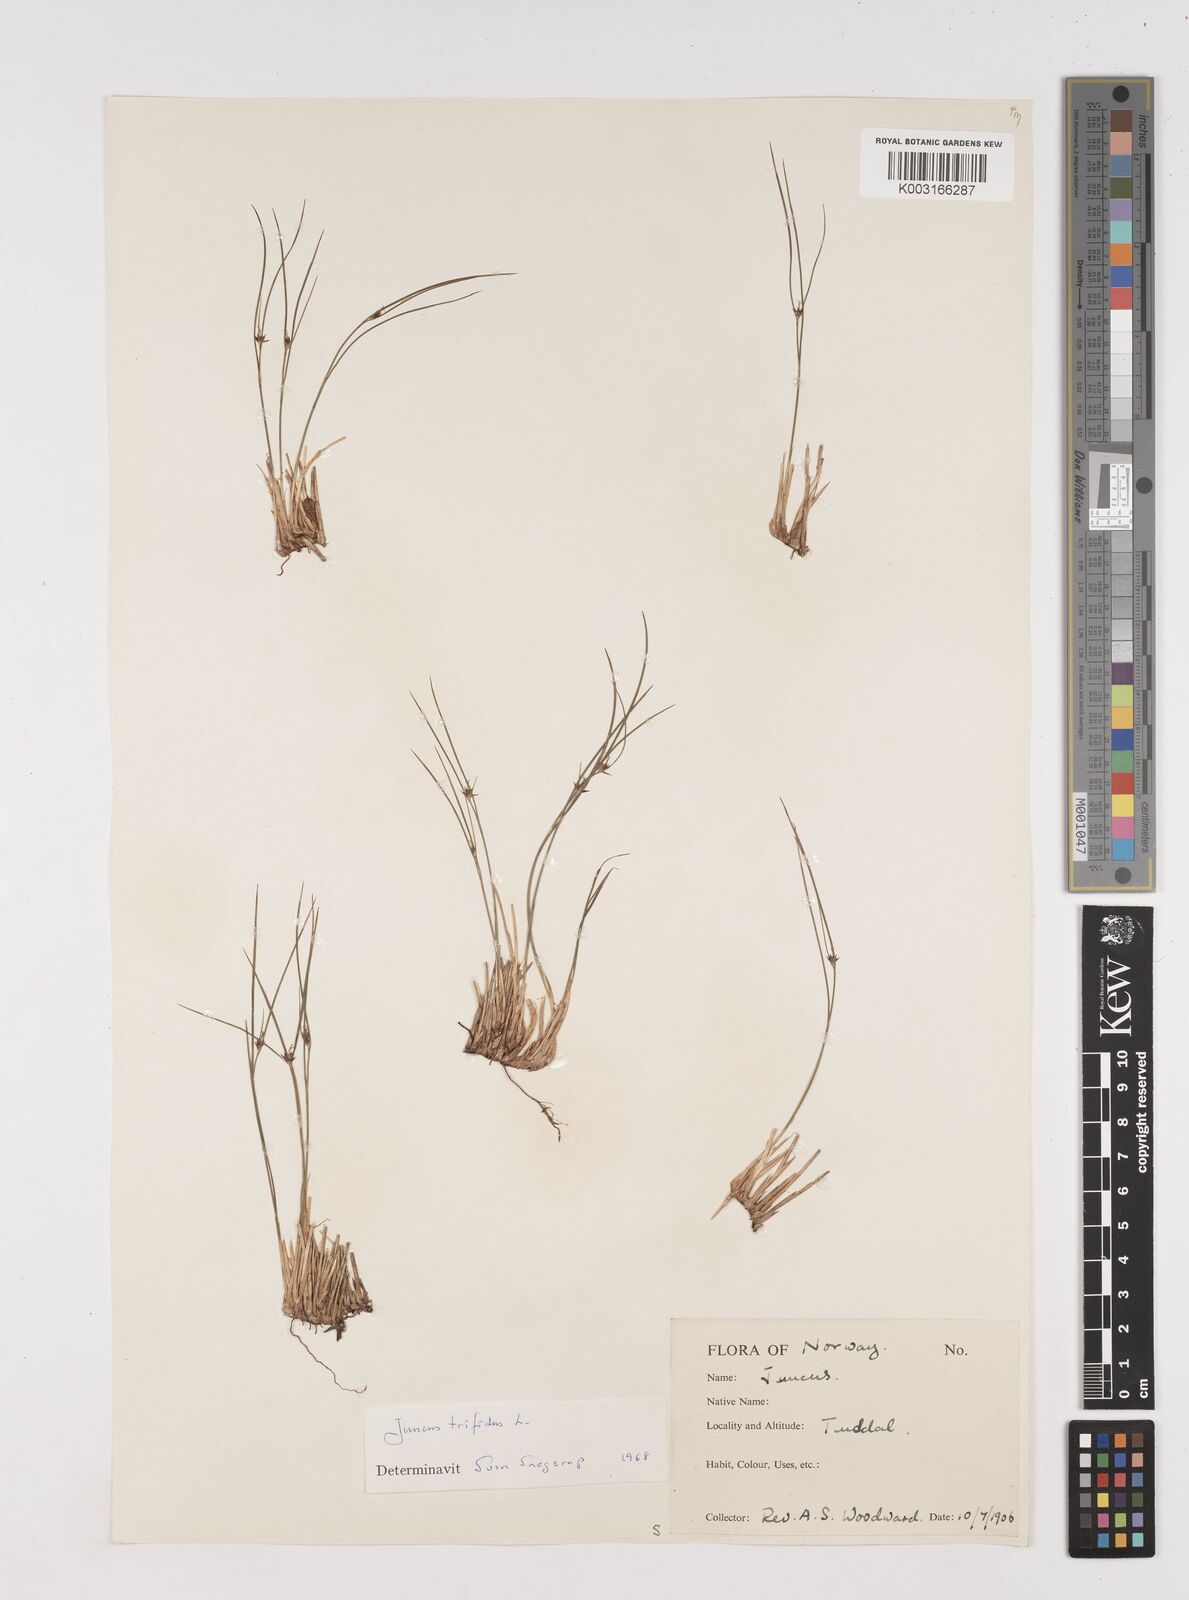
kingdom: Plantae
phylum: Tracheophyta
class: Liliopsida
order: Poales
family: Juncaceae
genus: Oreojuncus
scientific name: Oreojuncus trifidus
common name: Highland rush
